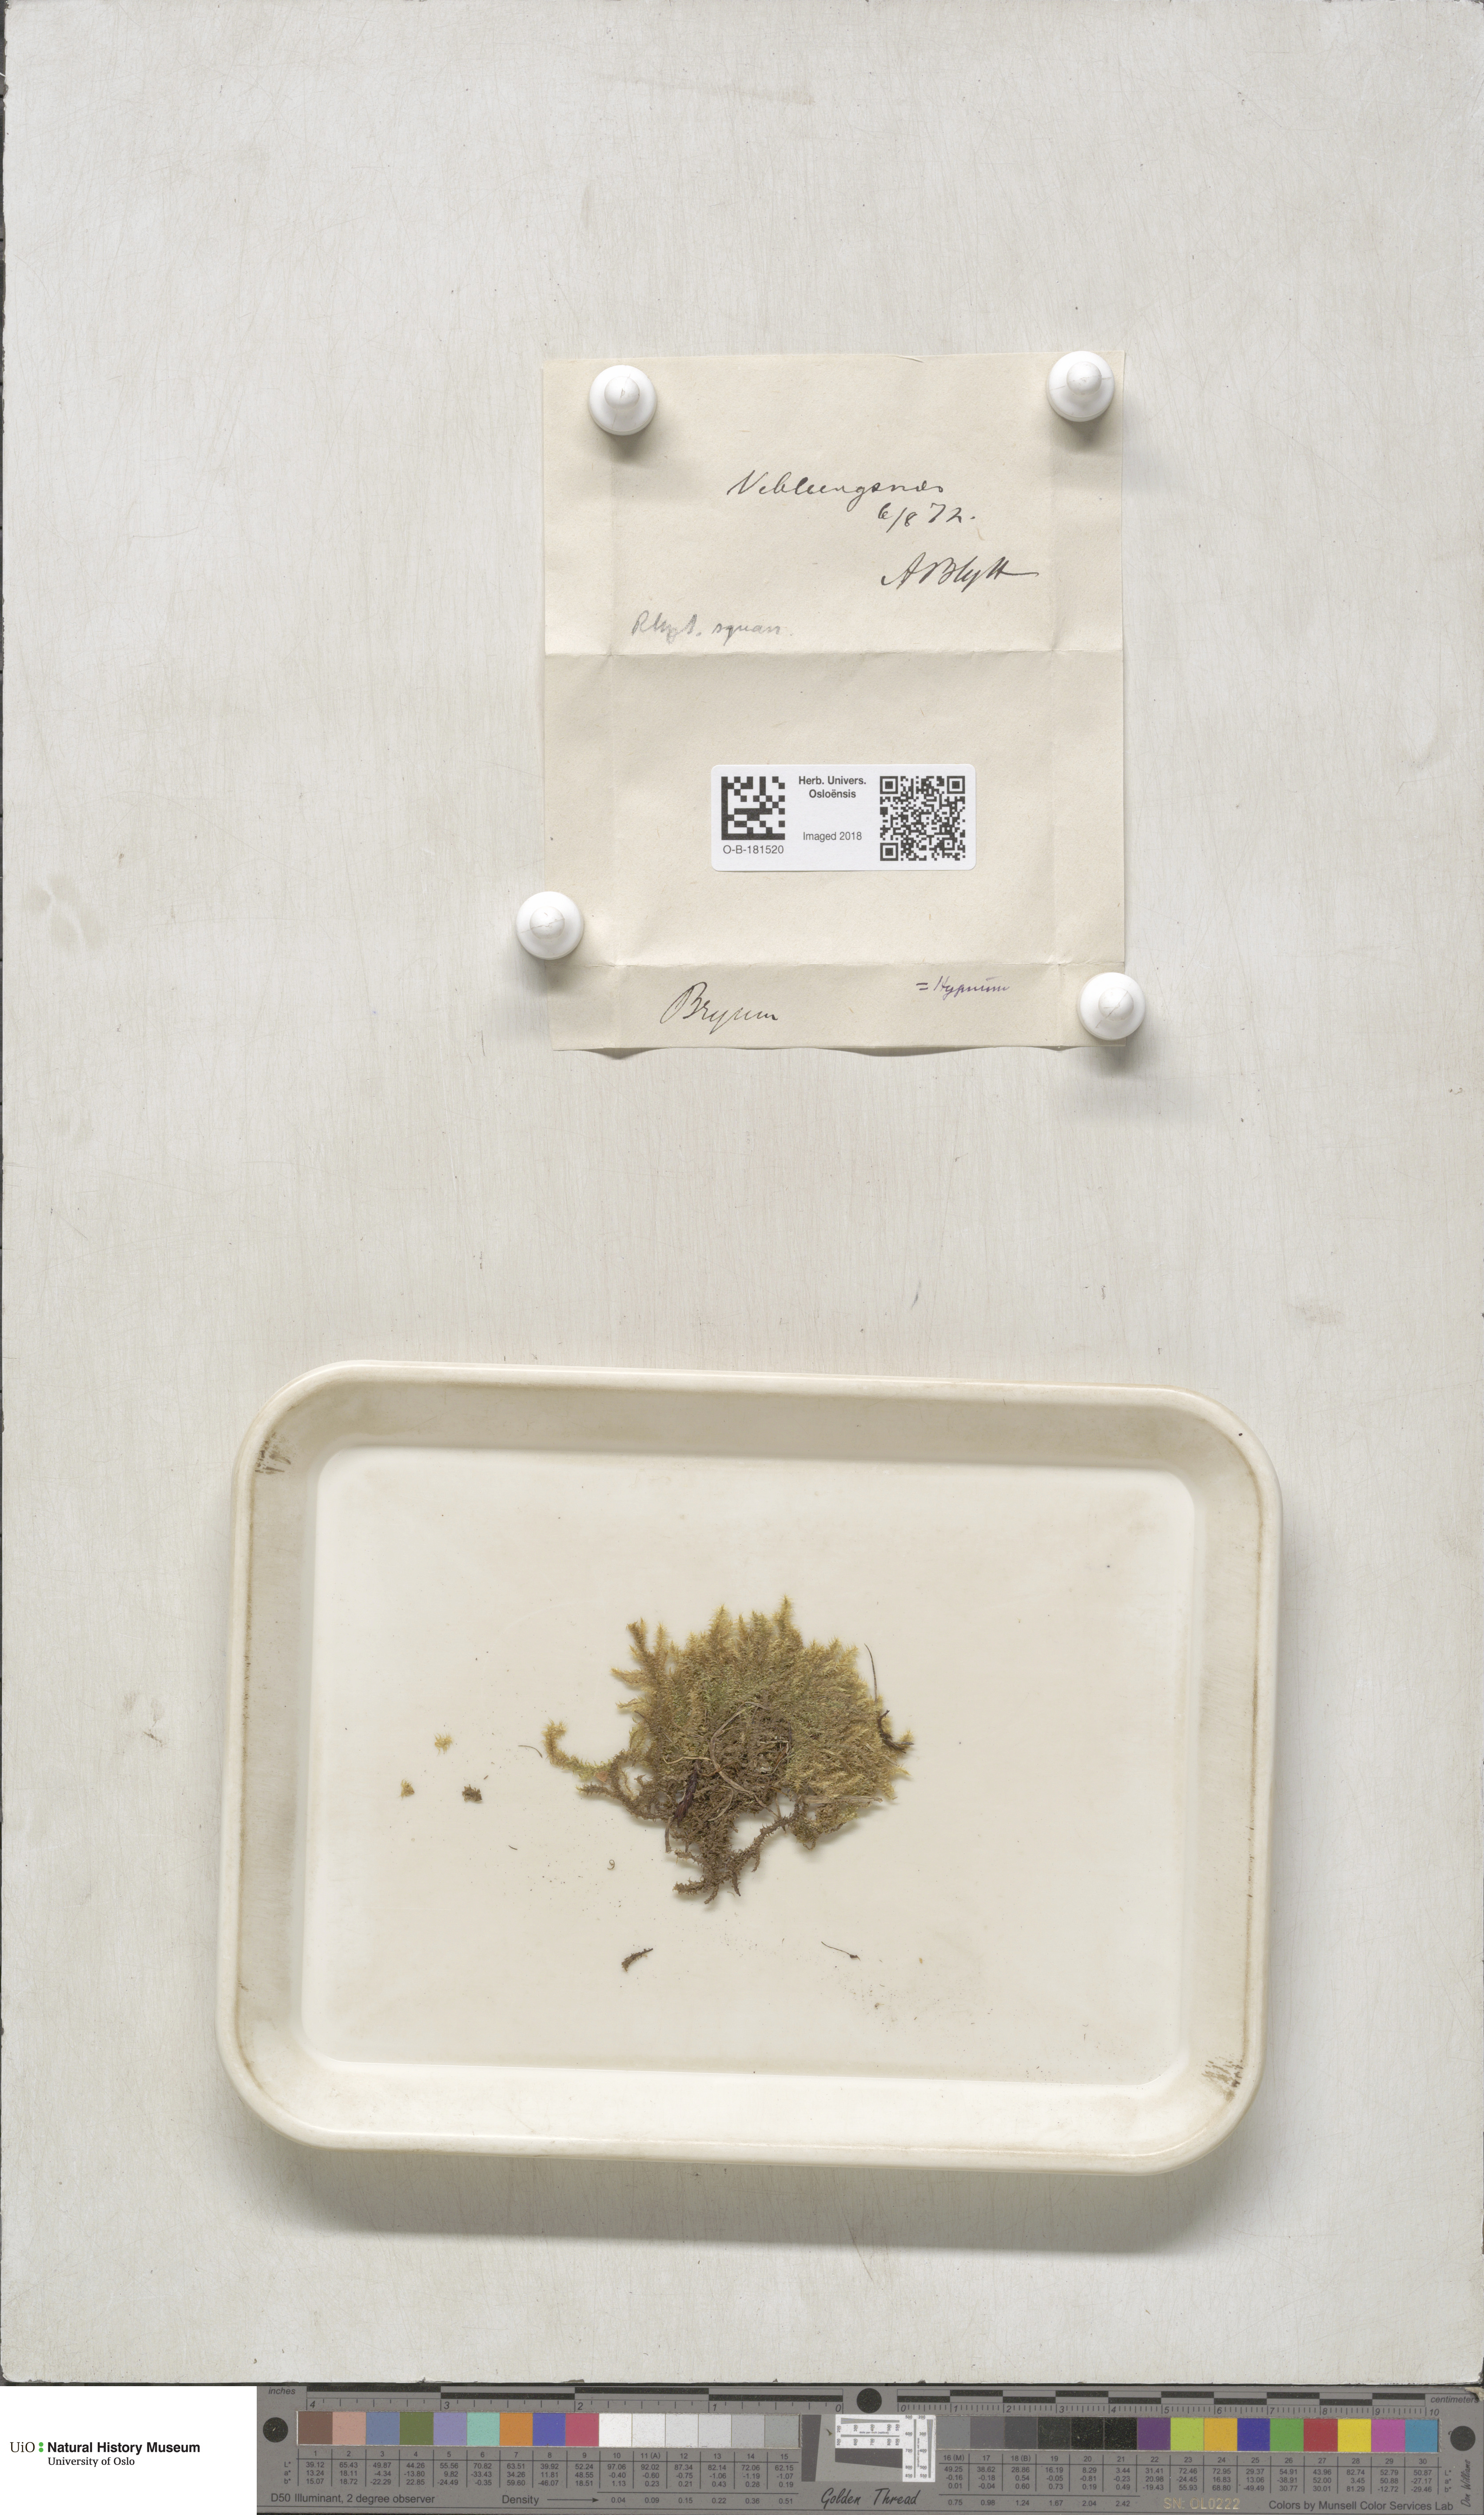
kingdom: Plantae
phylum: Bryophyta
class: Bryopsida
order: Hypnales
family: Hylocomiaceae
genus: Rhytidiadelphus
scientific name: Rhytidiadelphus squarrosus
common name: Springy turf-moss
